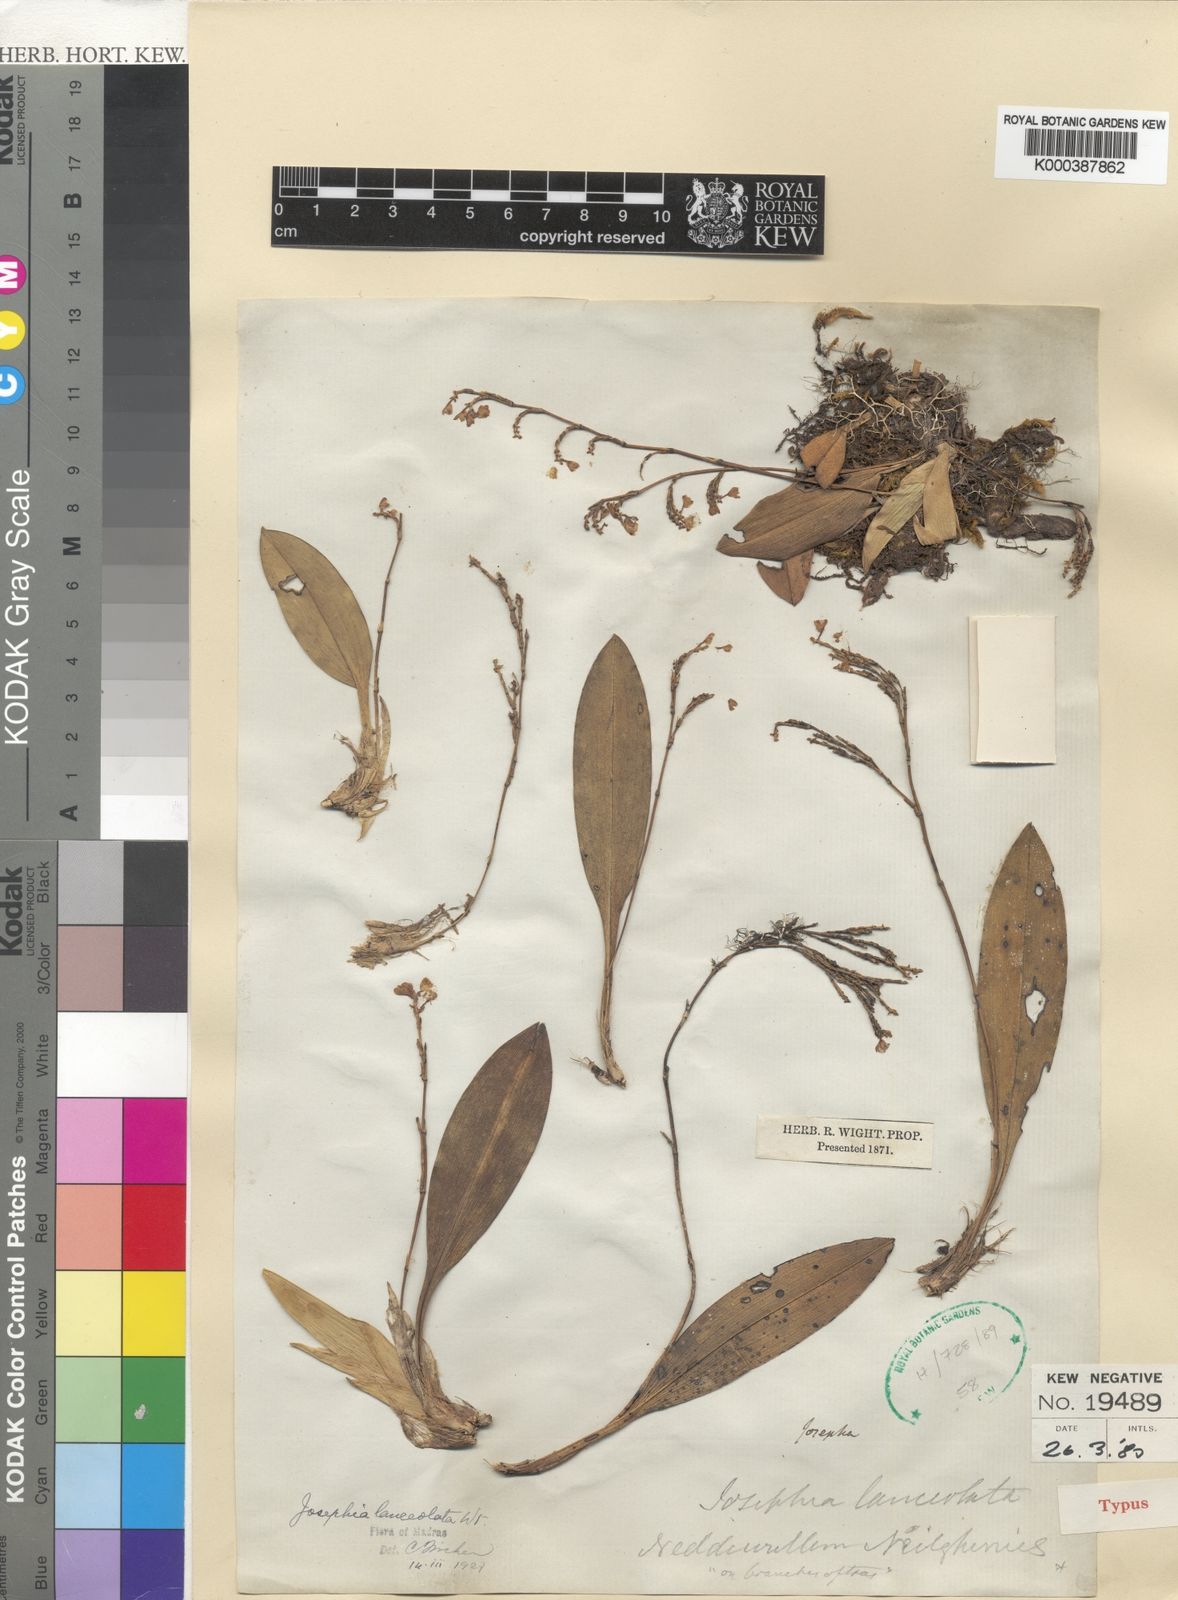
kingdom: Plantae
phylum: Tracheophyta
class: Liliopsida
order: Asparagales
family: Orchidaceae
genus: Sirhookera
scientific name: Sirhookera lanceolata
